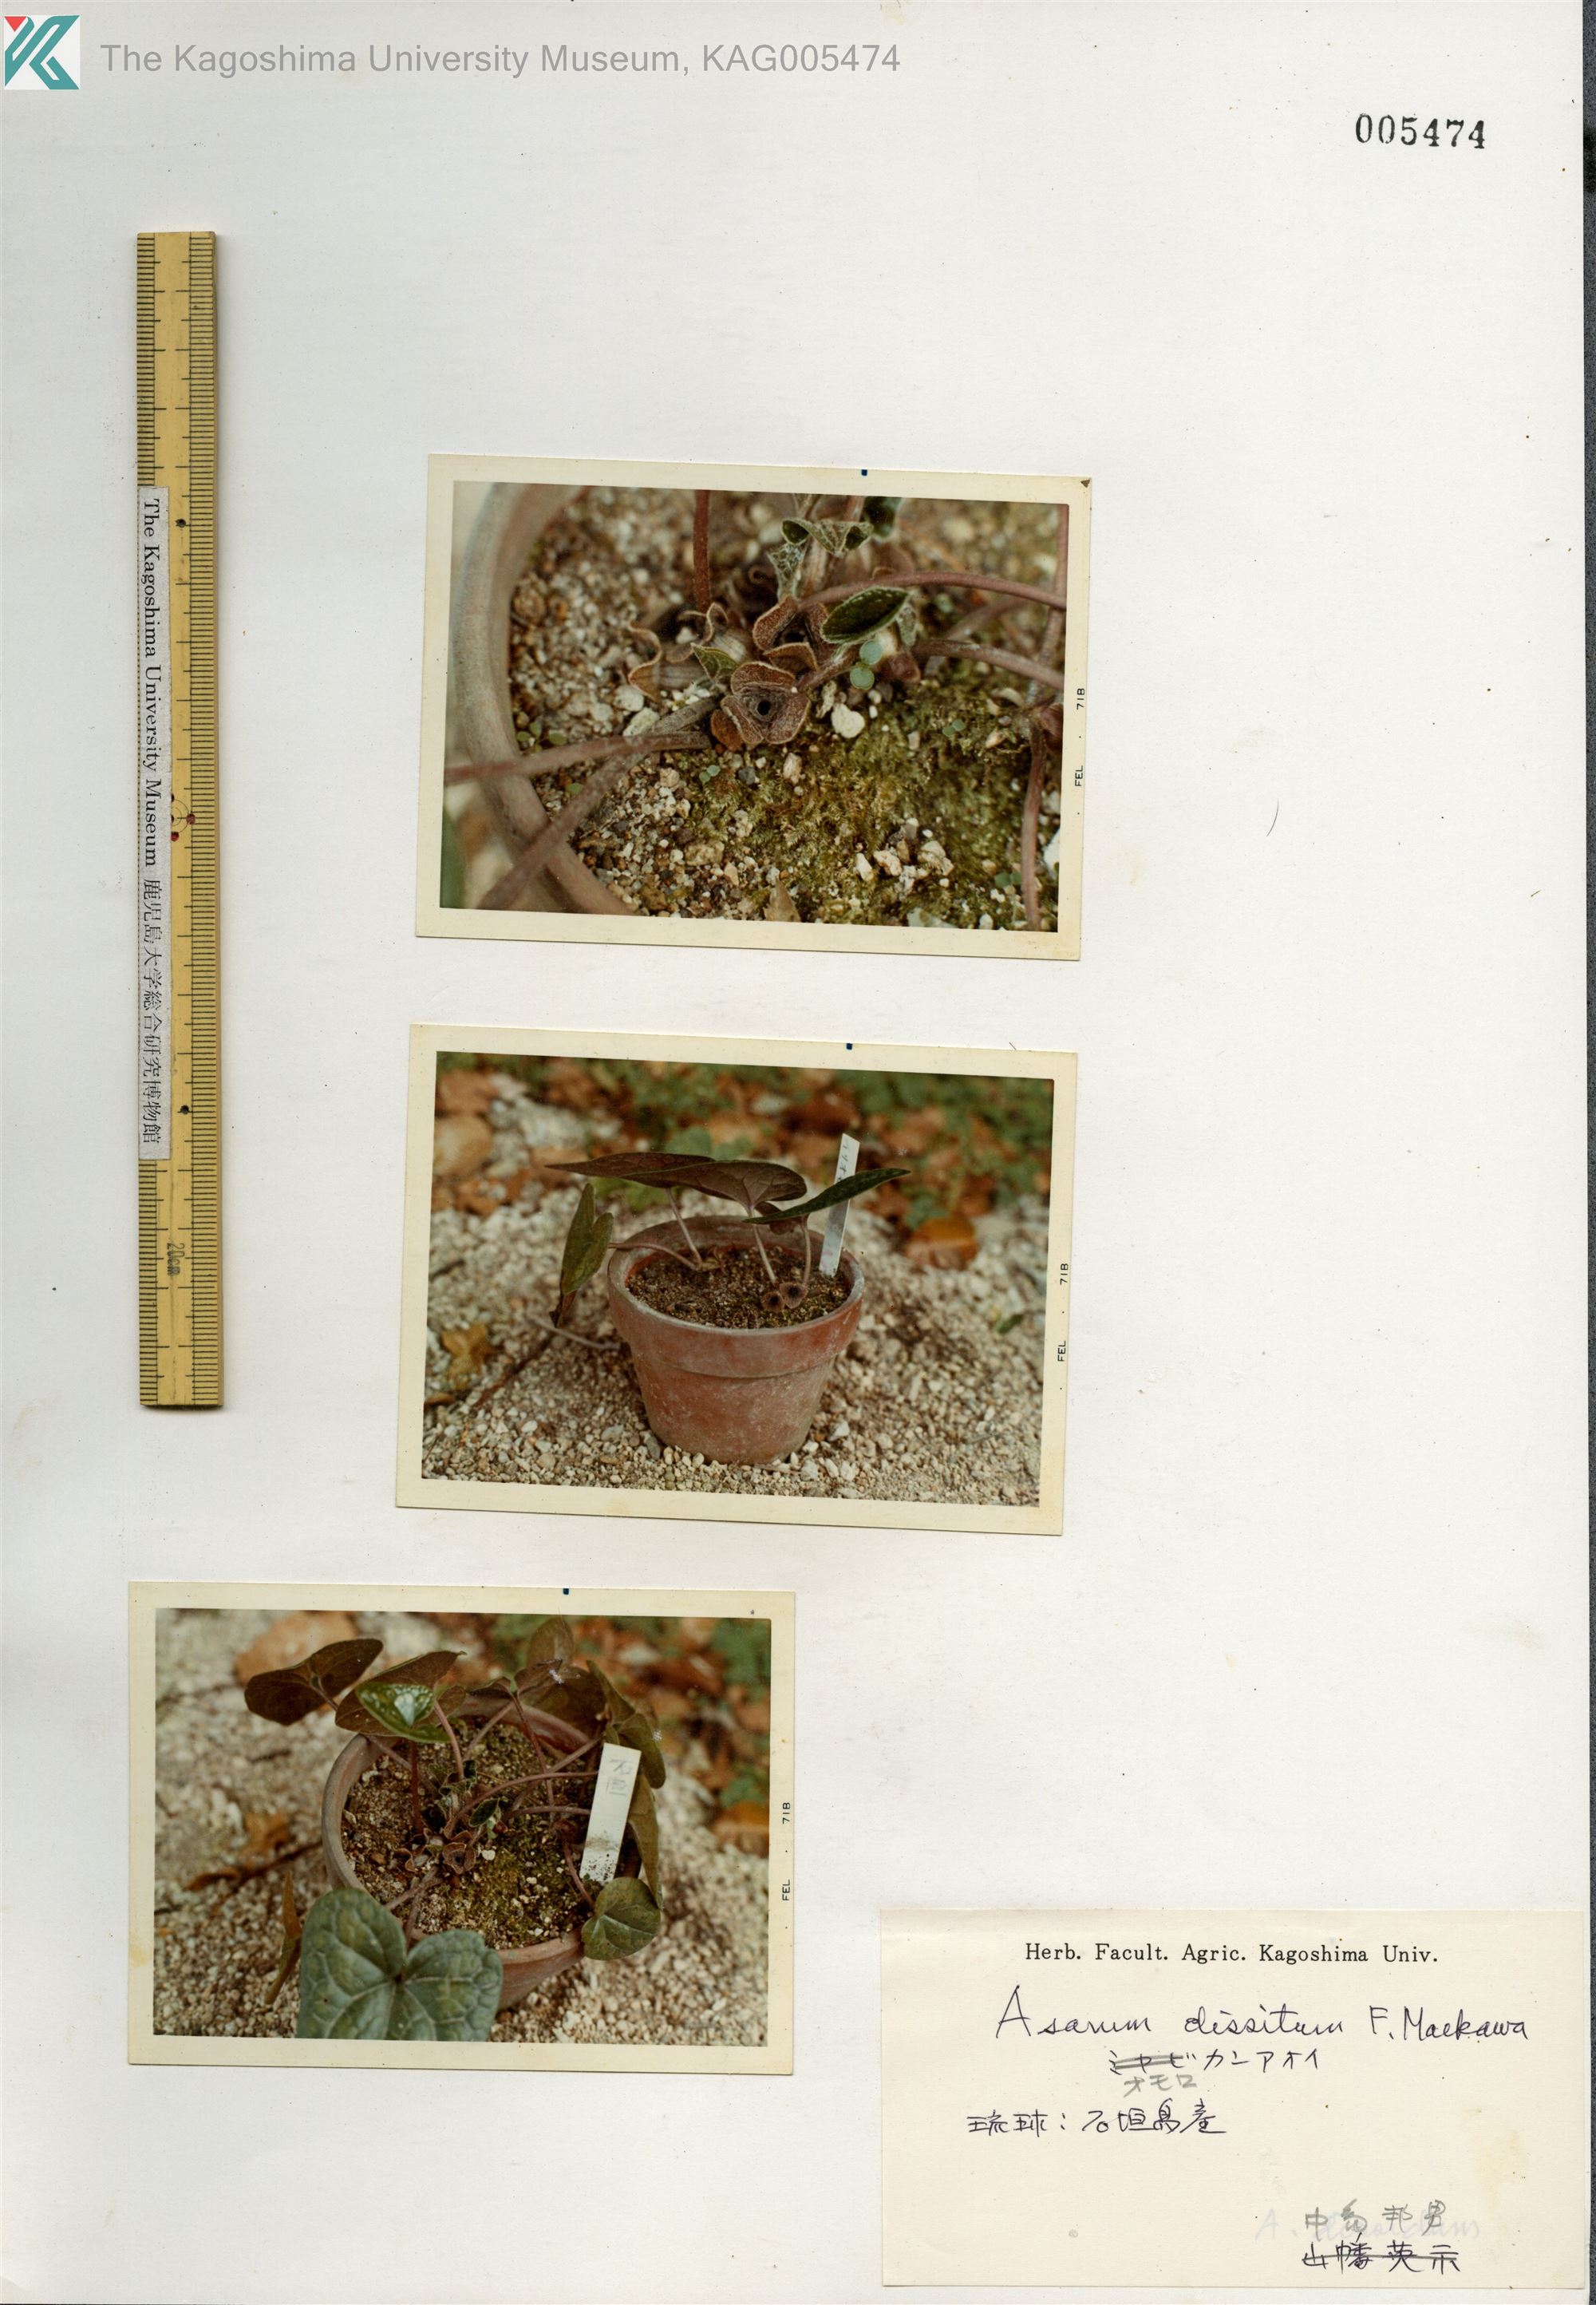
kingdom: Plantae
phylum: Tracheophyta
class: Magnoliopsida
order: Piperales
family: Aristolochiaceae
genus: Asarum
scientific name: Asarum dissitum
